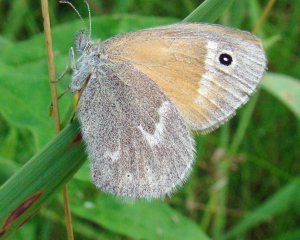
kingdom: Animalia
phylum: Arthropoda
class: Insecta
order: Lepidoptera
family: Nymphalidae
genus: Coenonympha
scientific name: Coenonympha tullia
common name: Large Heath
